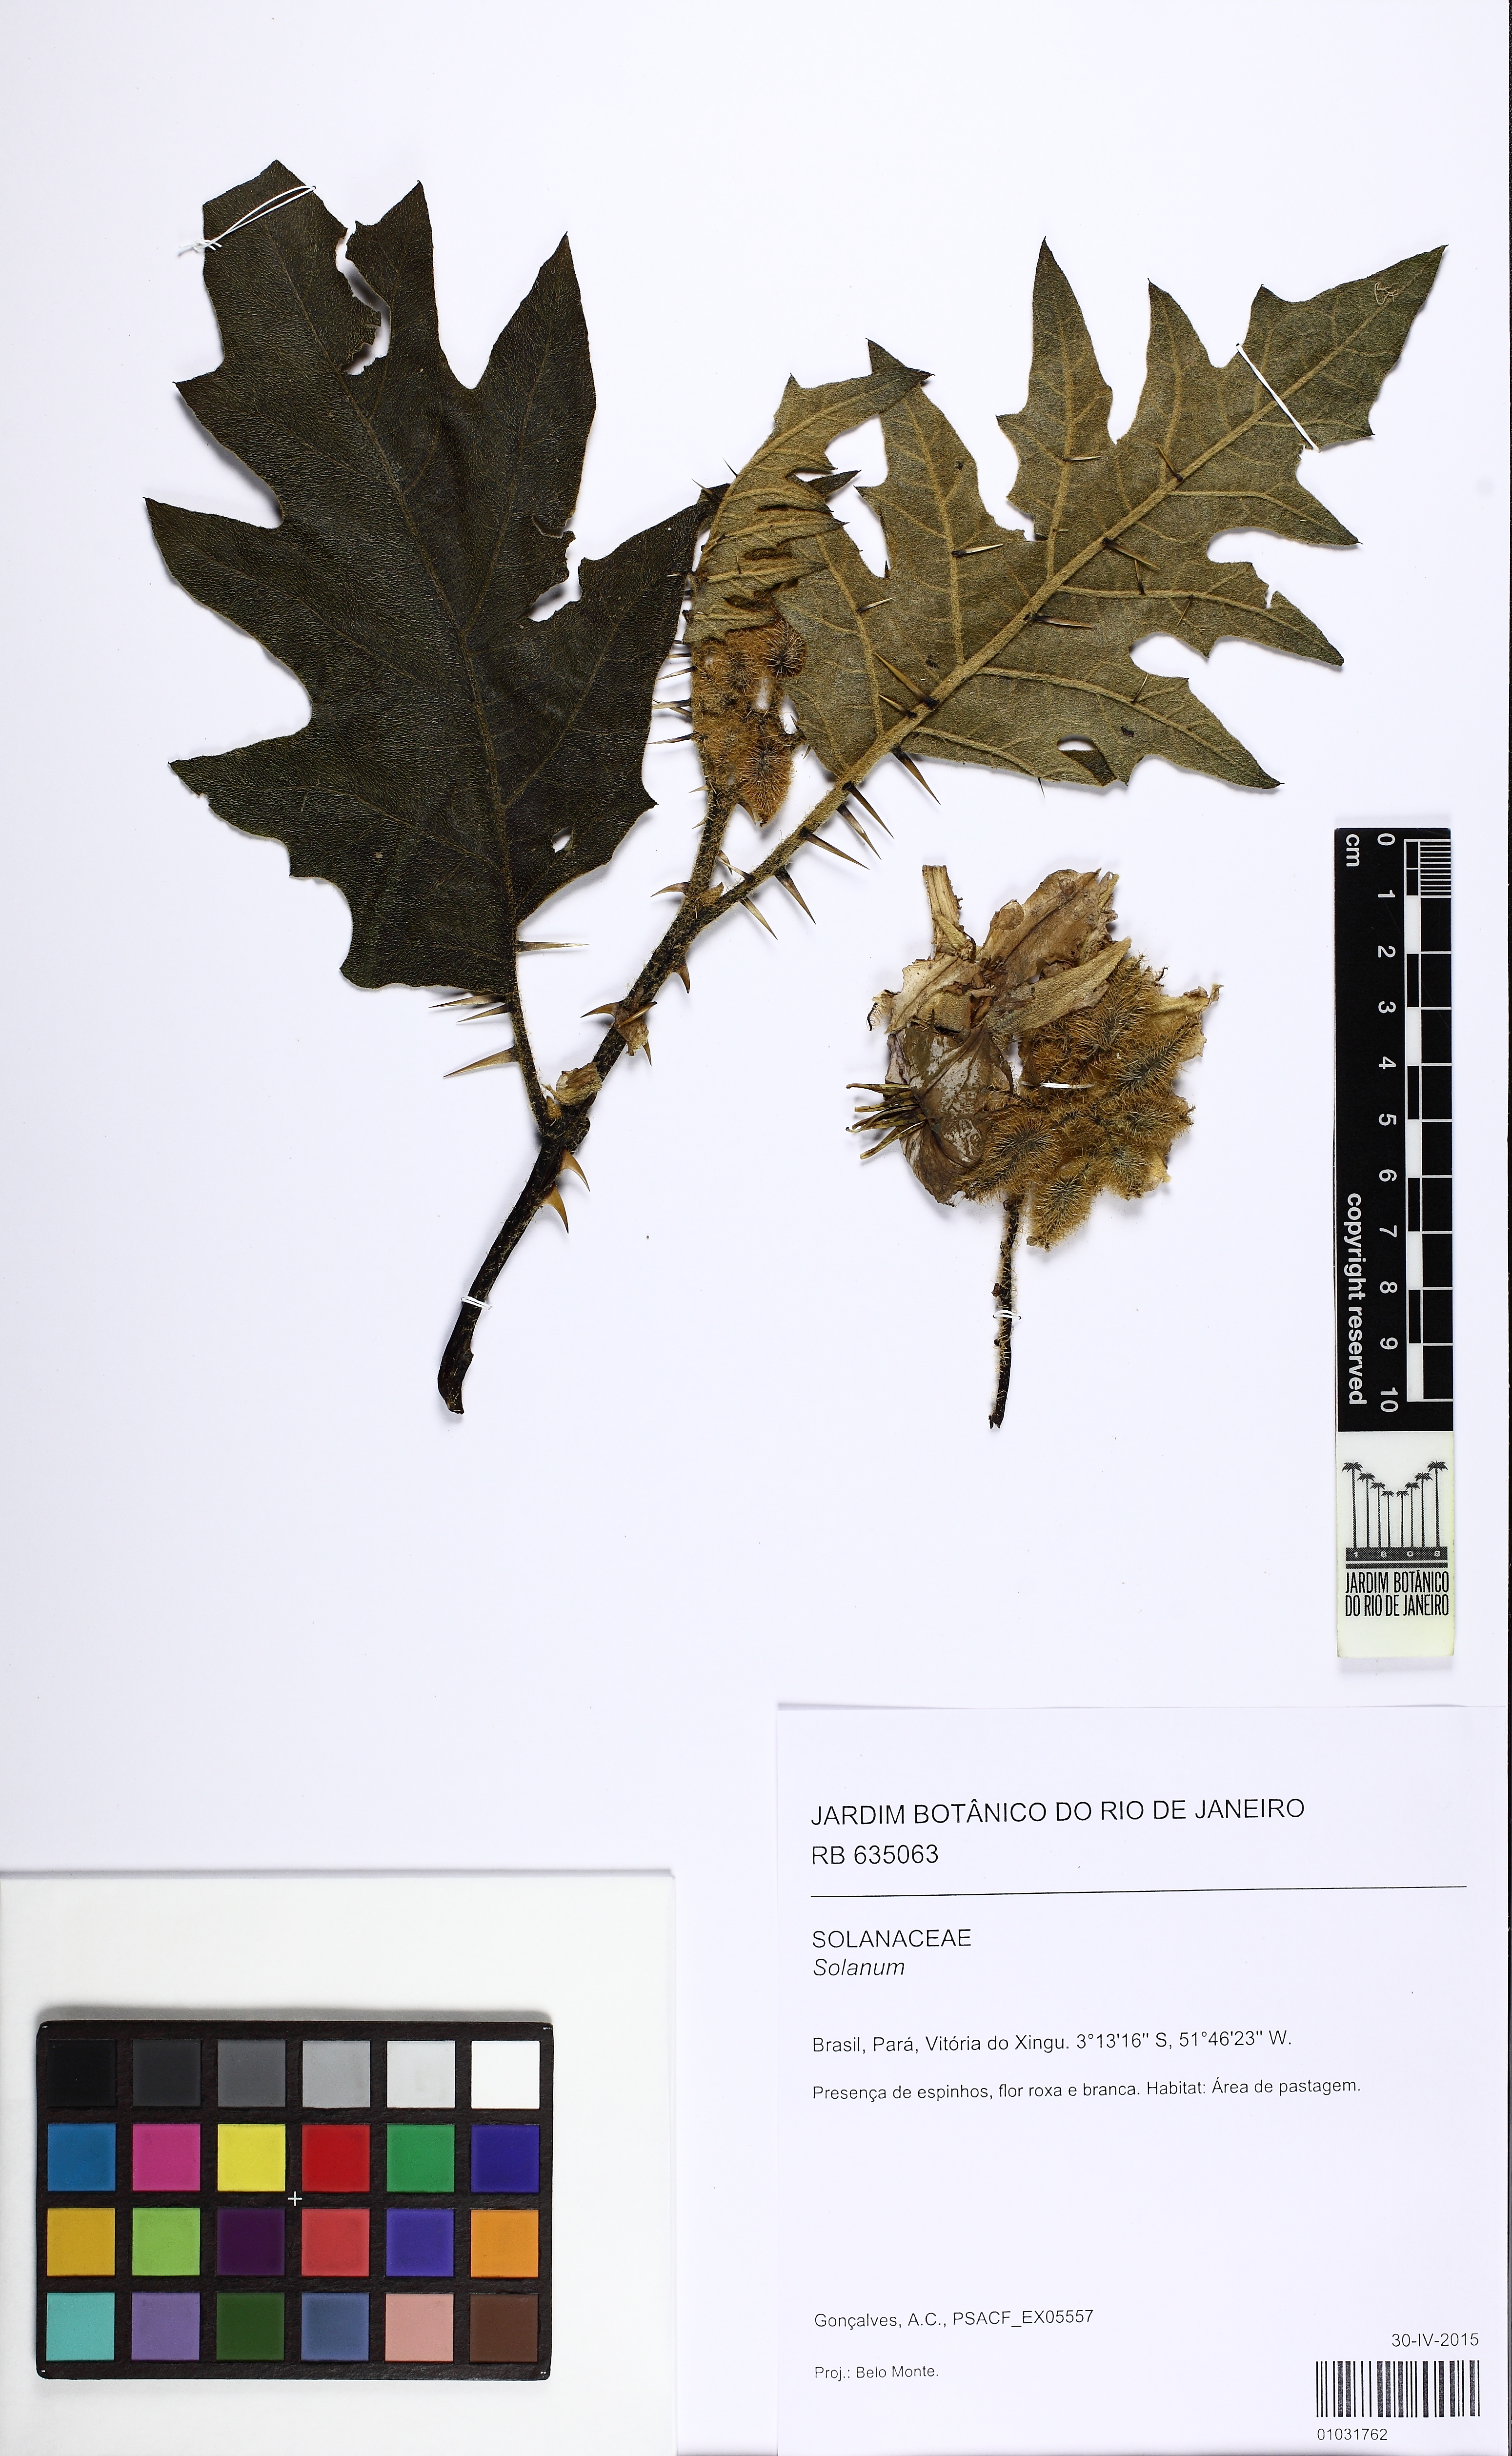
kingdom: Plantae
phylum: Tracheophyta
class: Magnoliopsida
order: Solanales
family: Solanaceae
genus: Solanum
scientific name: Solanum vanheurckii
